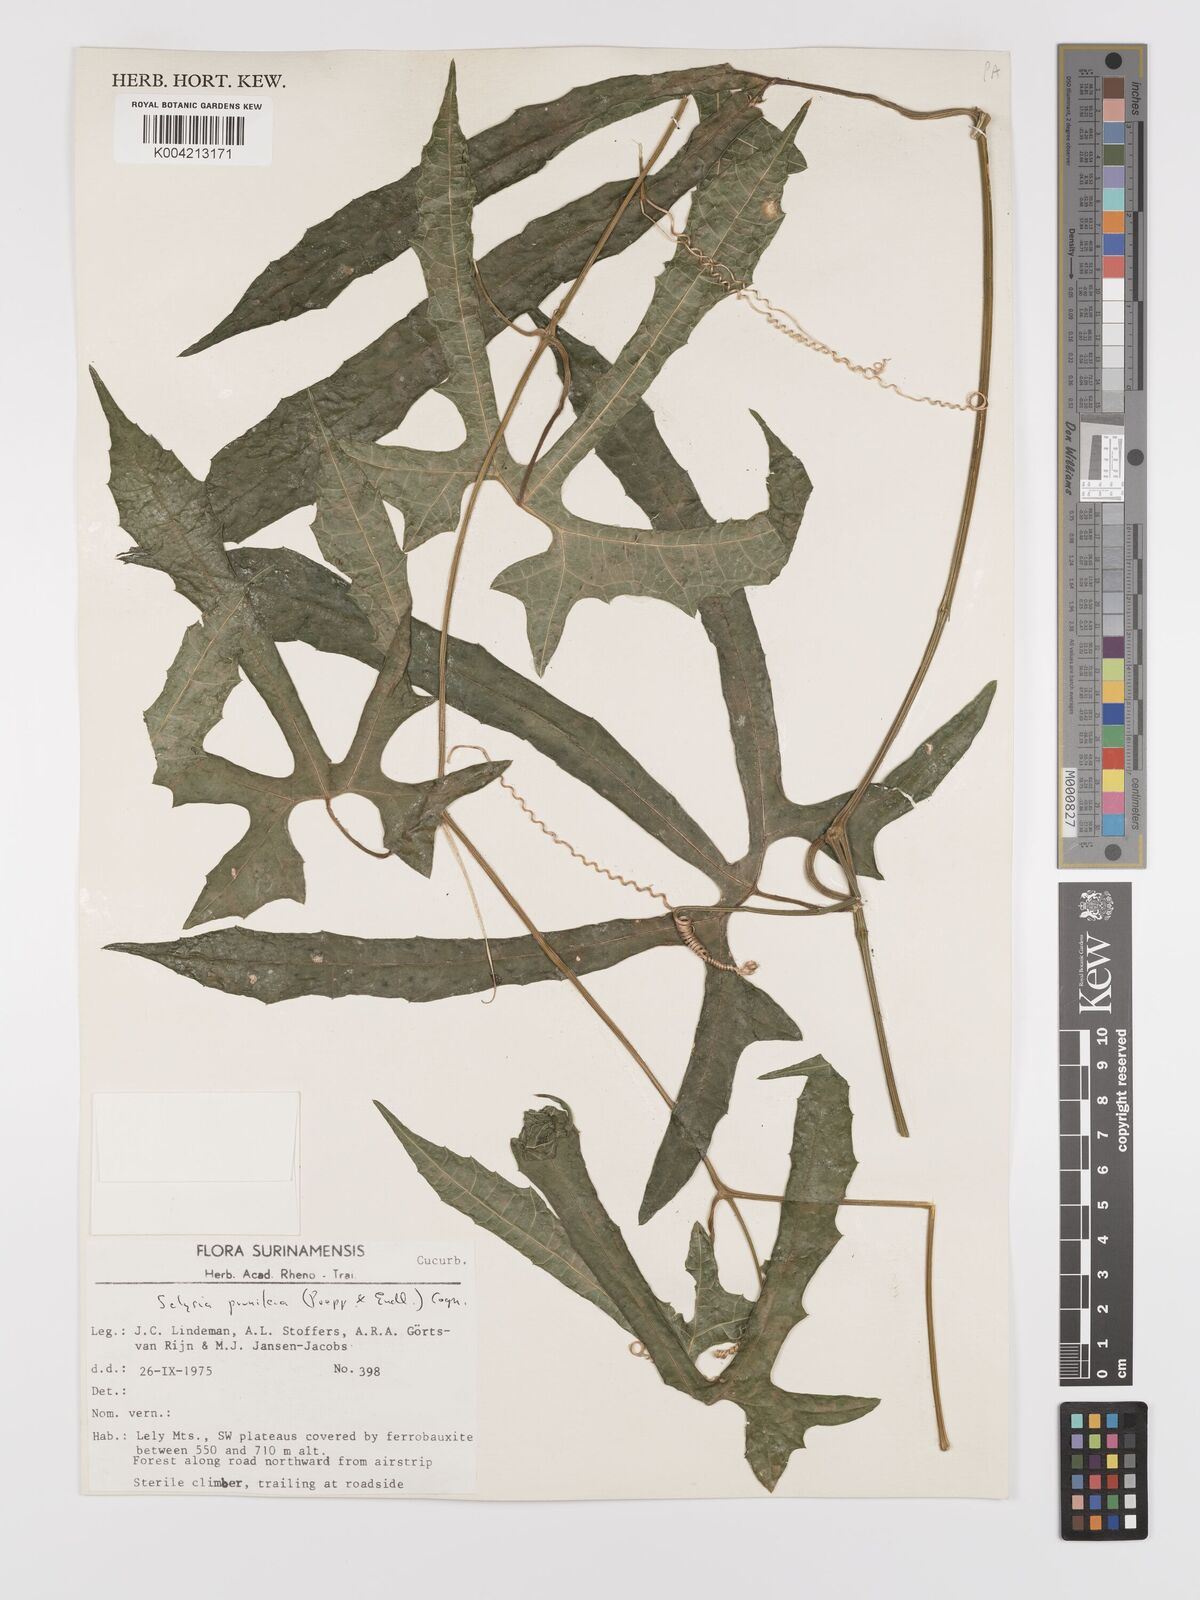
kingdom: Plantae
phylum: Tracheophyta
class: Magnoliopsida
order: Cucurbitales
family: Cucurbitaceae
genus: Cayaponia
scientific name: Cayaponia prunifera
